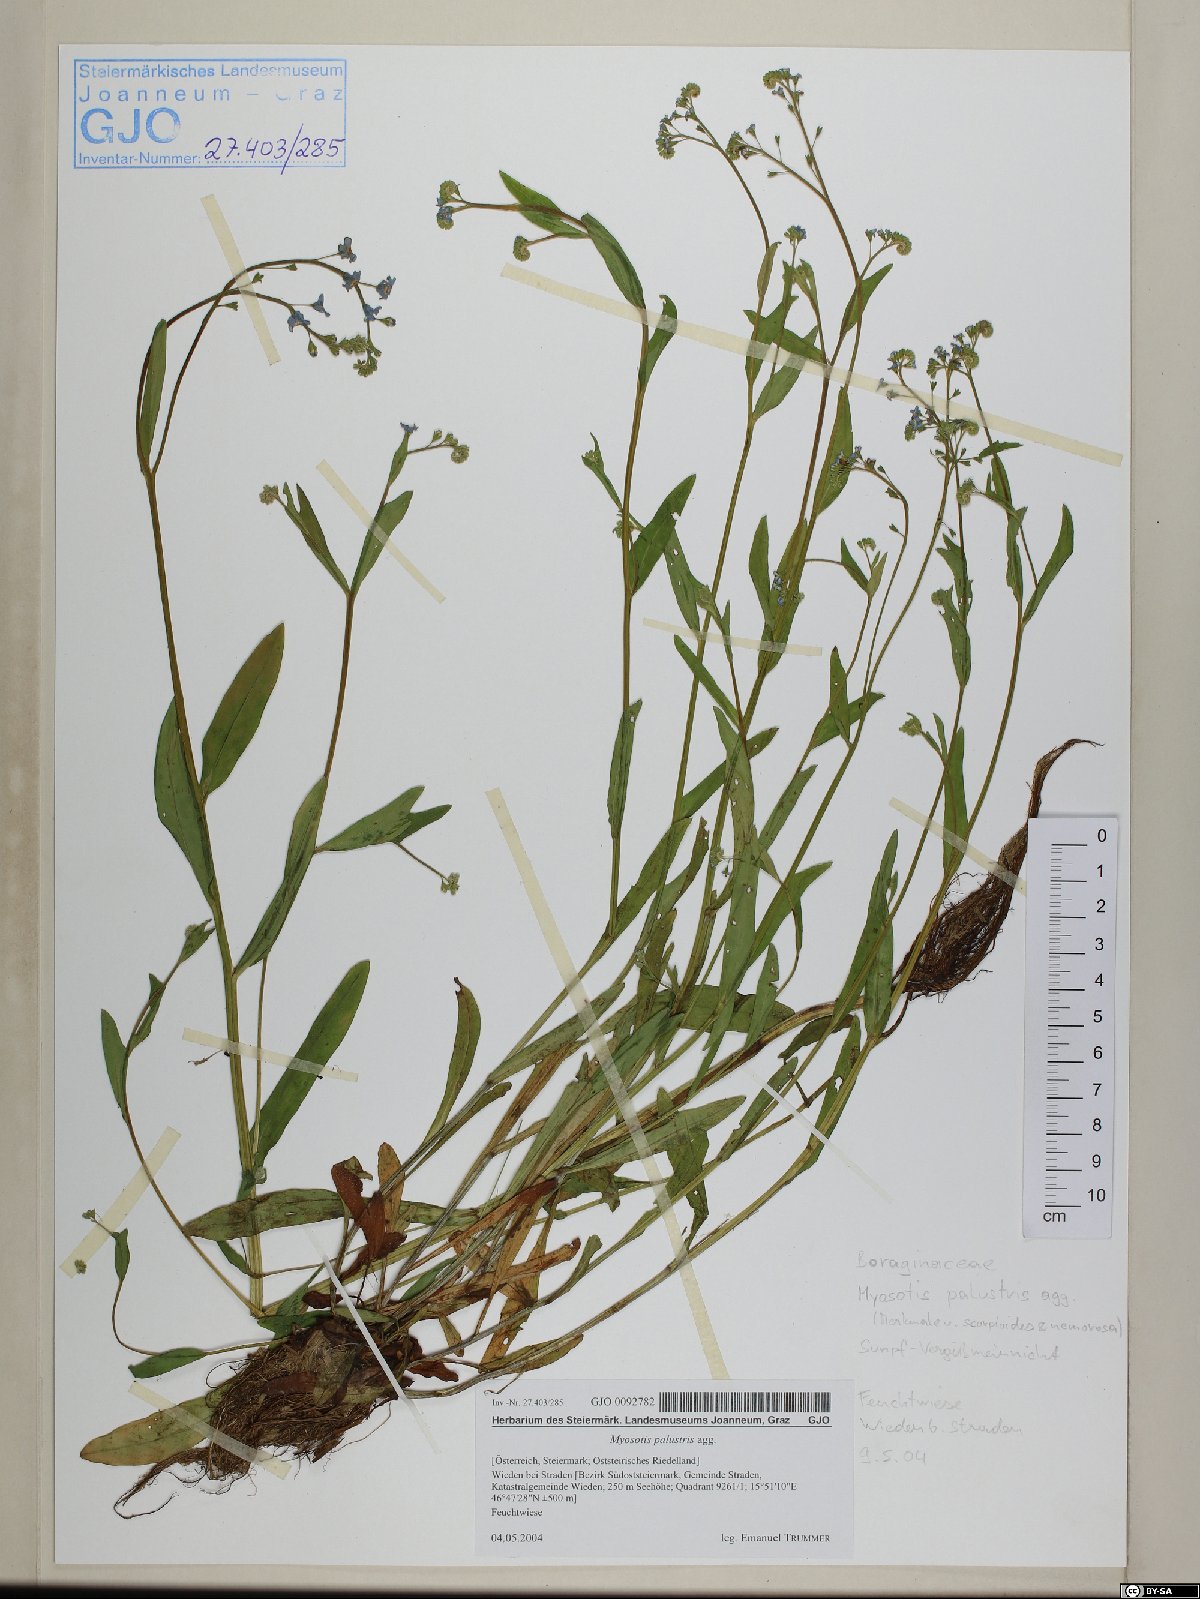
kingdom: Plantae
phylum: Tracheophyta
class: Magnoliopsida
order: Boraginales
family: Boraginaceae
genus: Myosotis
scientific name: Myosotis scorpioides
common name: Water forget-me-not
